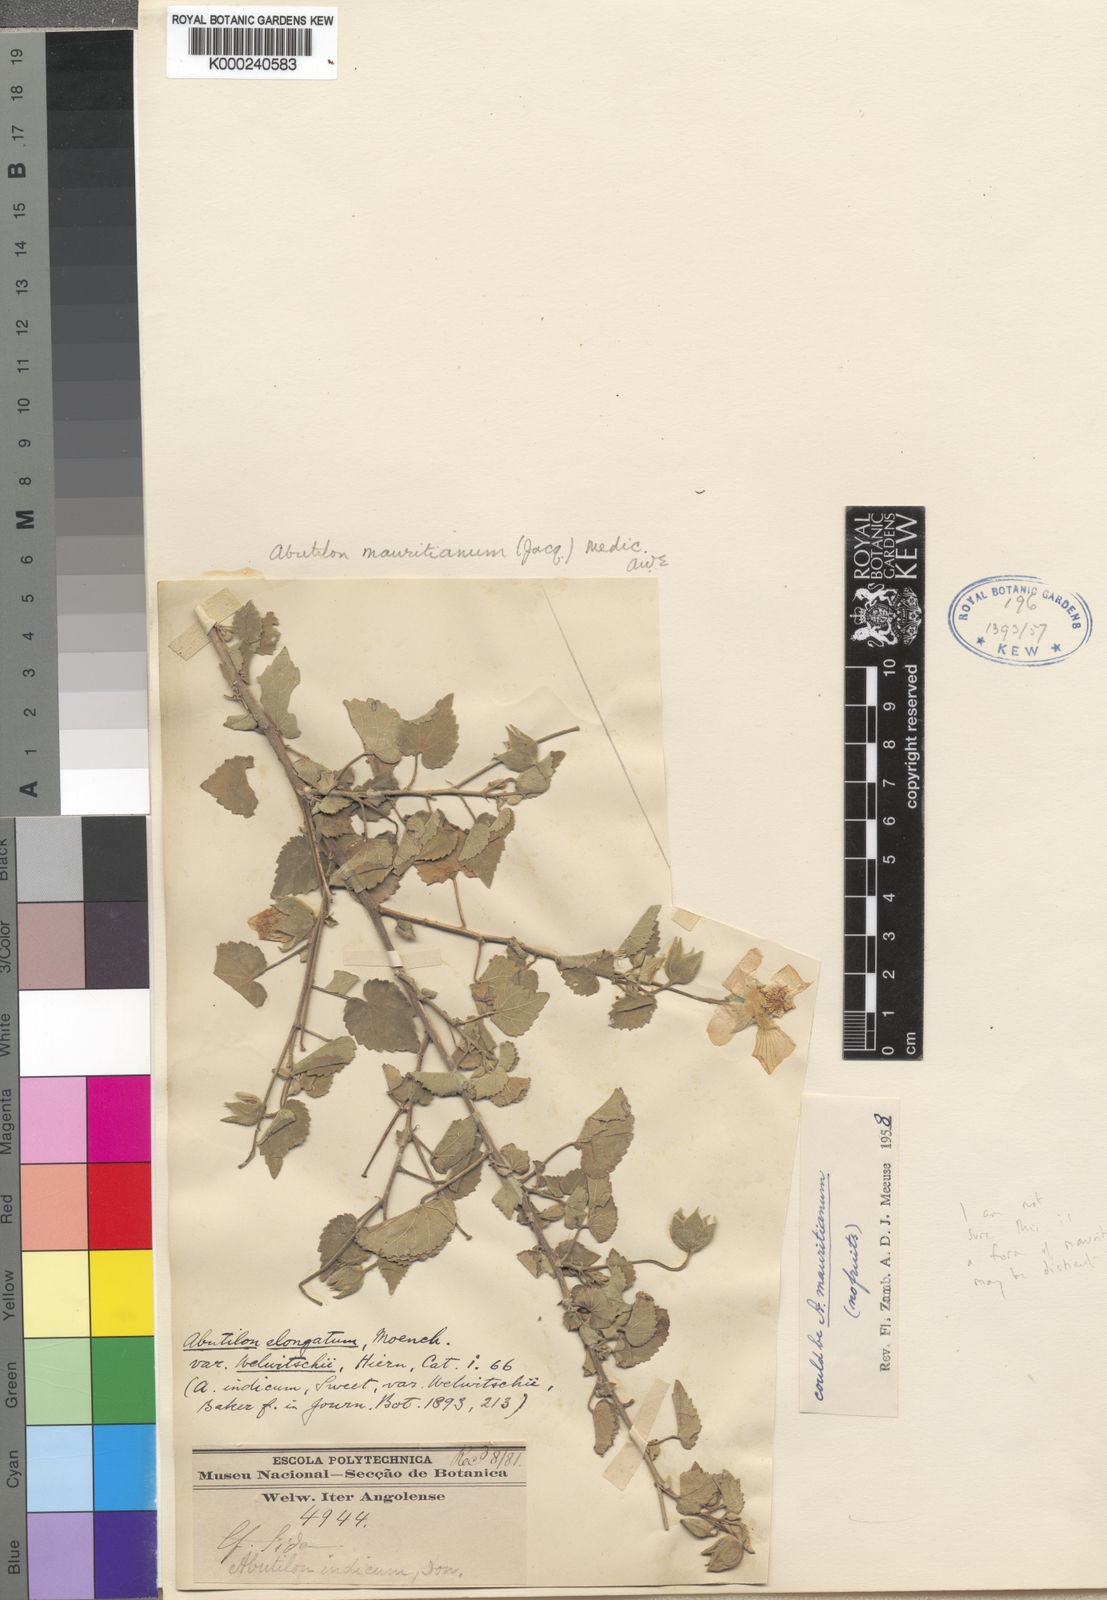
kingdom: Plantae
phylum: Tracheophyta
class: Magnoliopsida
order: Malvales
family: Malvaceae
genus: Abutilon
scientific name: Abutilon
